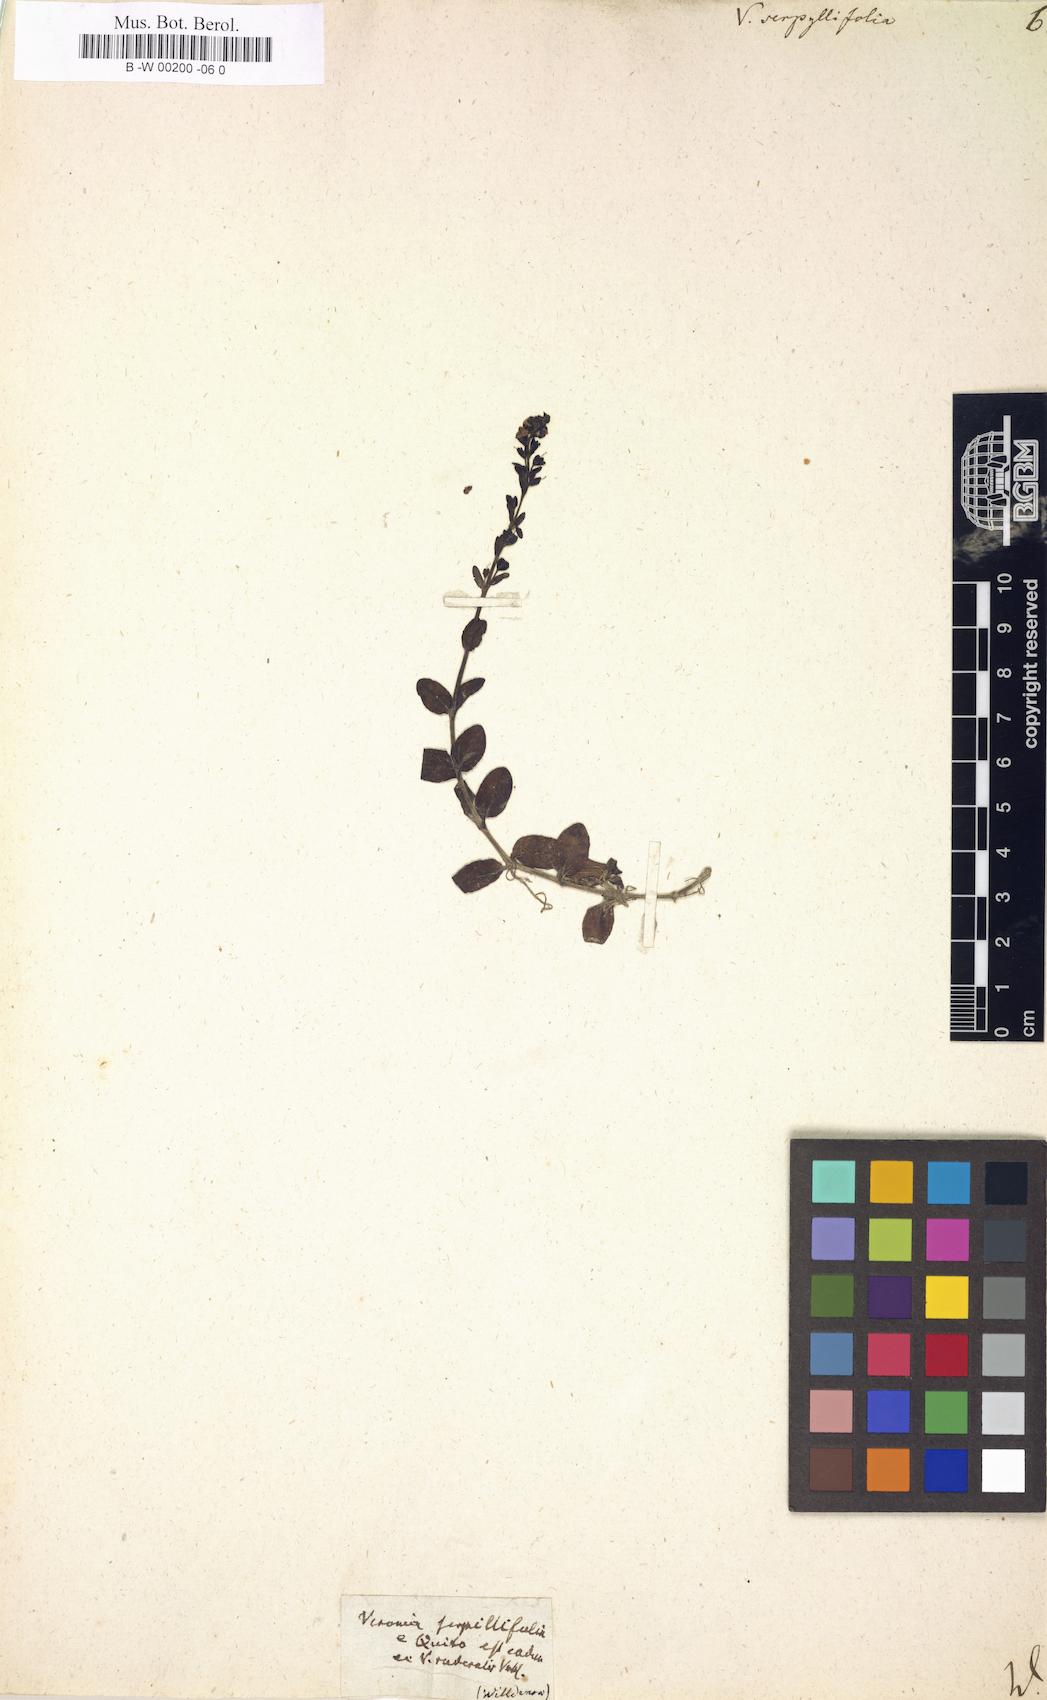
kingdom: Plantae
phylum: Tracheophyta
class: Magnoliopsida
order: Lamiales
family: Plantaginaceae
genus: Veronica
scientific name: Veronica serpyllifolia
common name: Thyme-leaved speedwell
